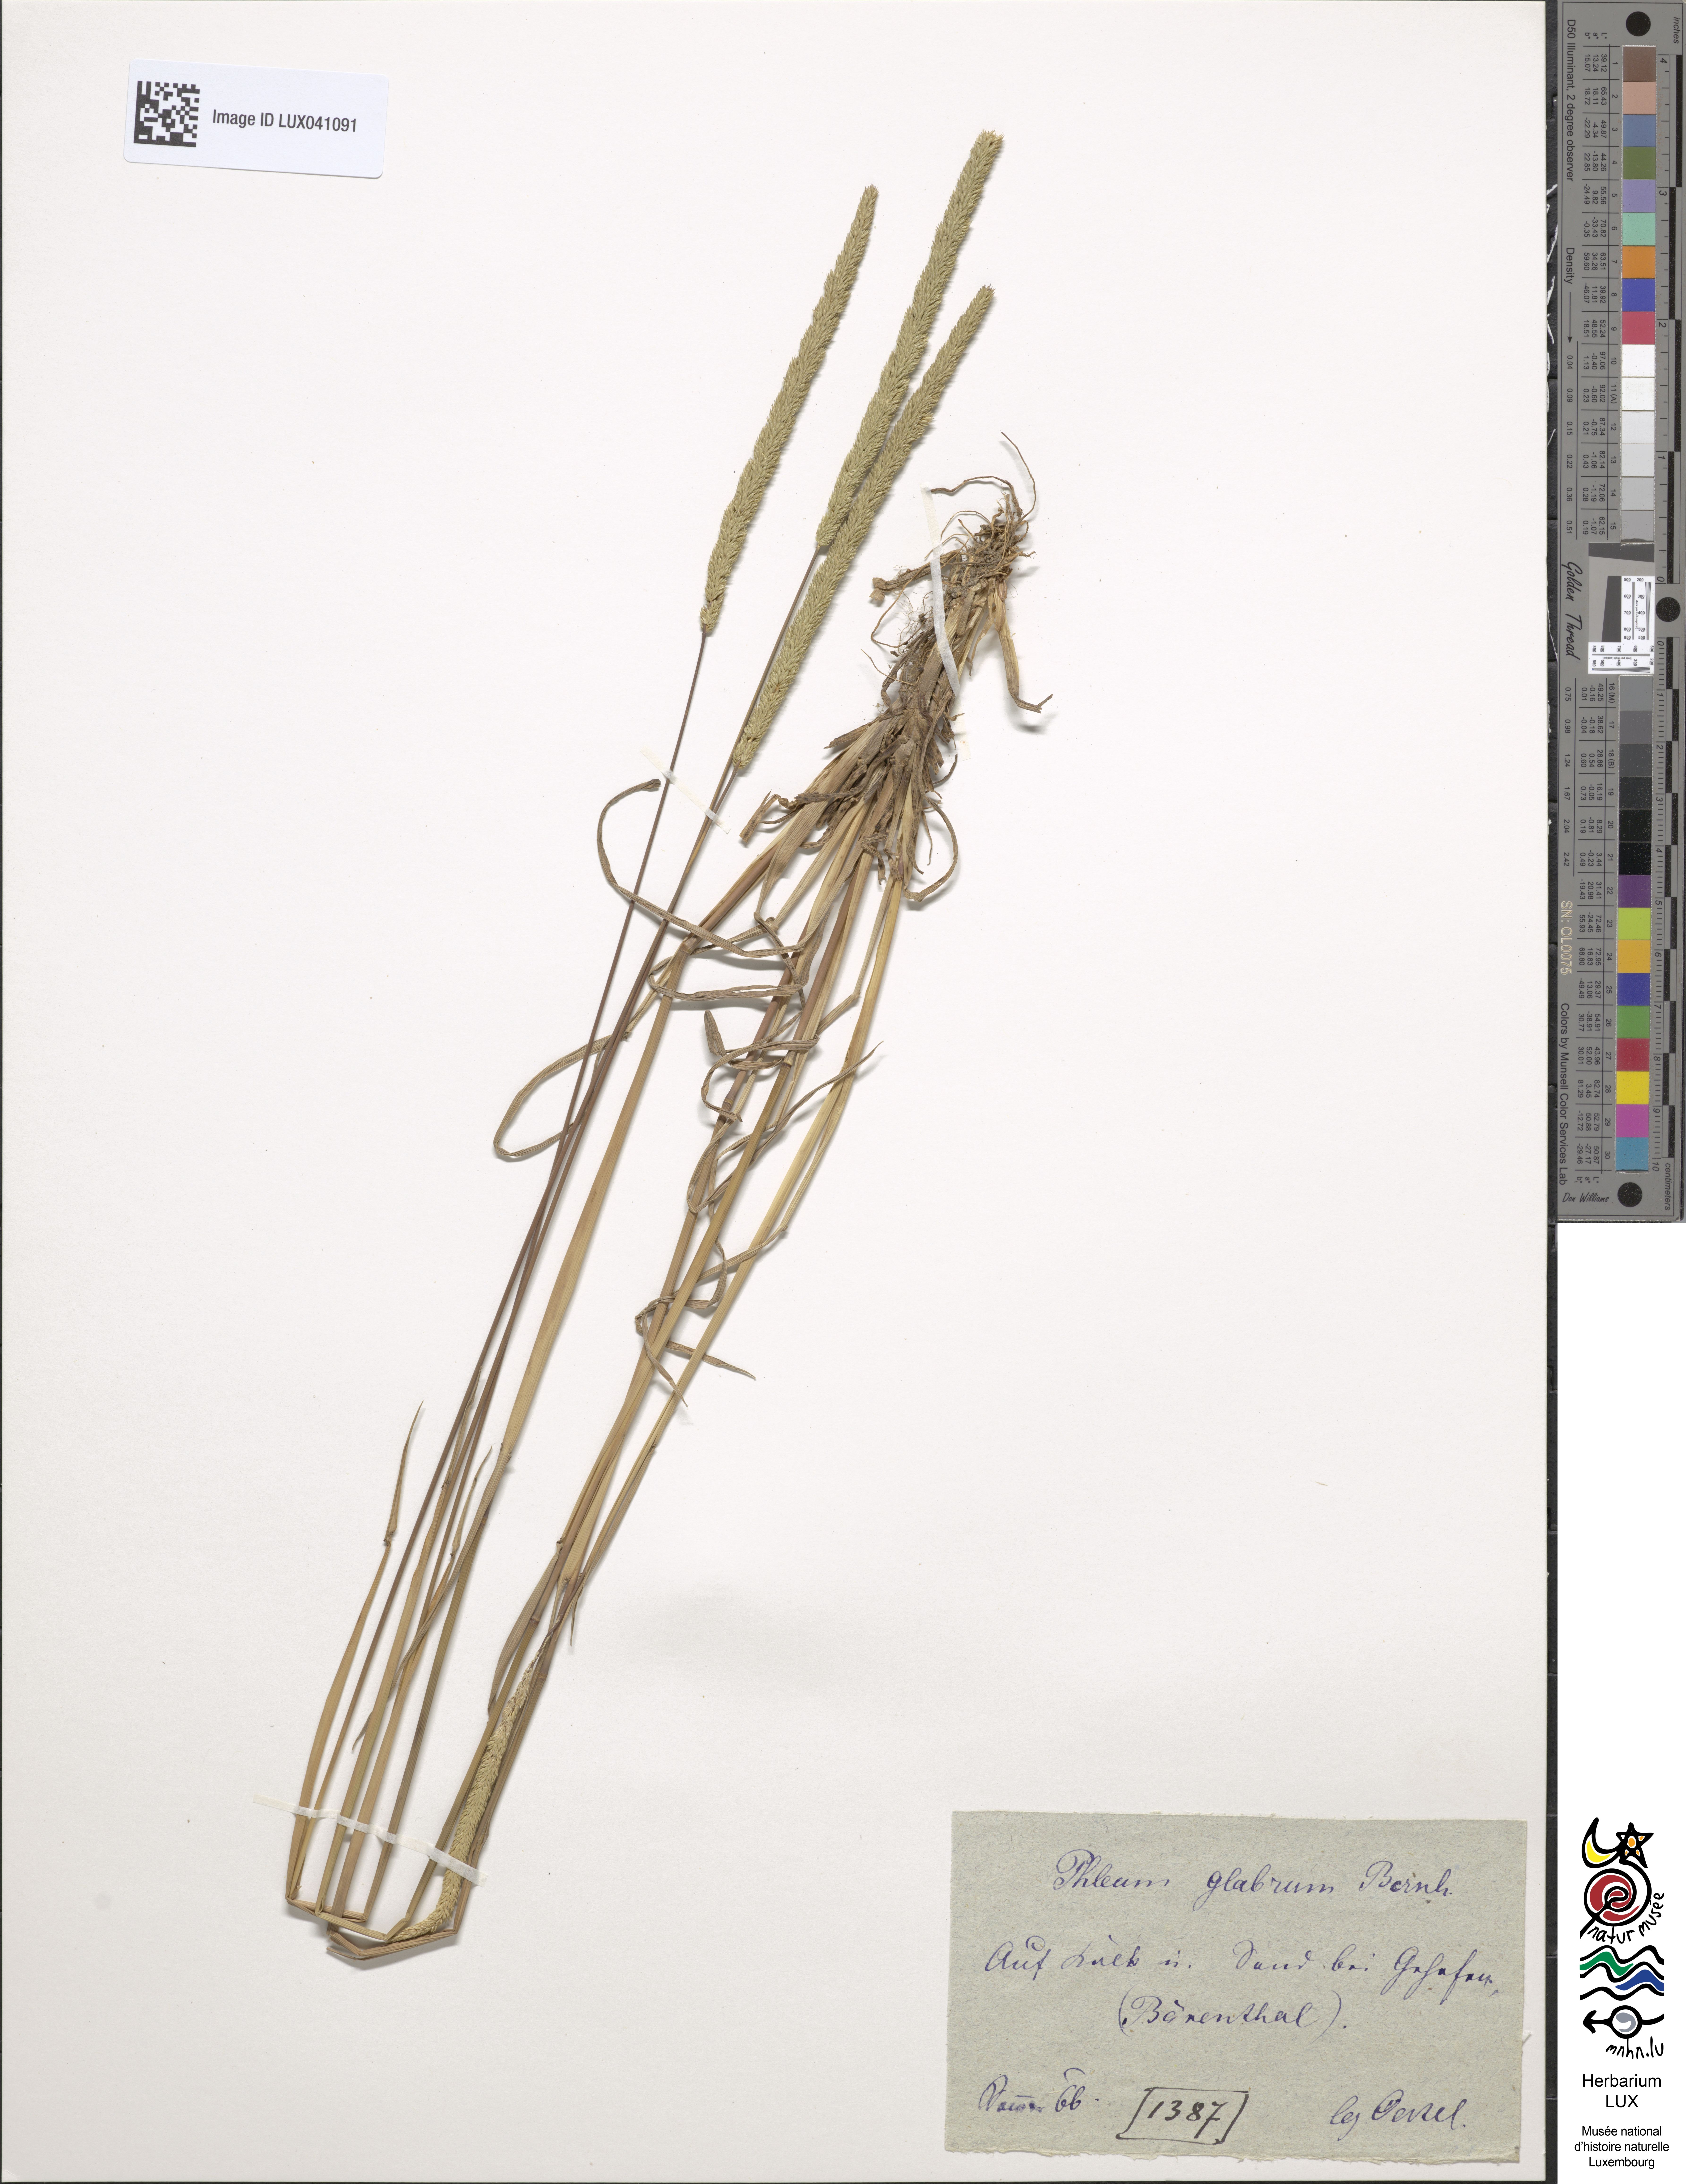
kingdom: Plantae
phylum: Tracheophyta
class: Liliopsida
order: Poales
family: Poaceae
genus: Phleum
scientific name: Phleum phleoides
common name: Purple-stem cat's-tail
